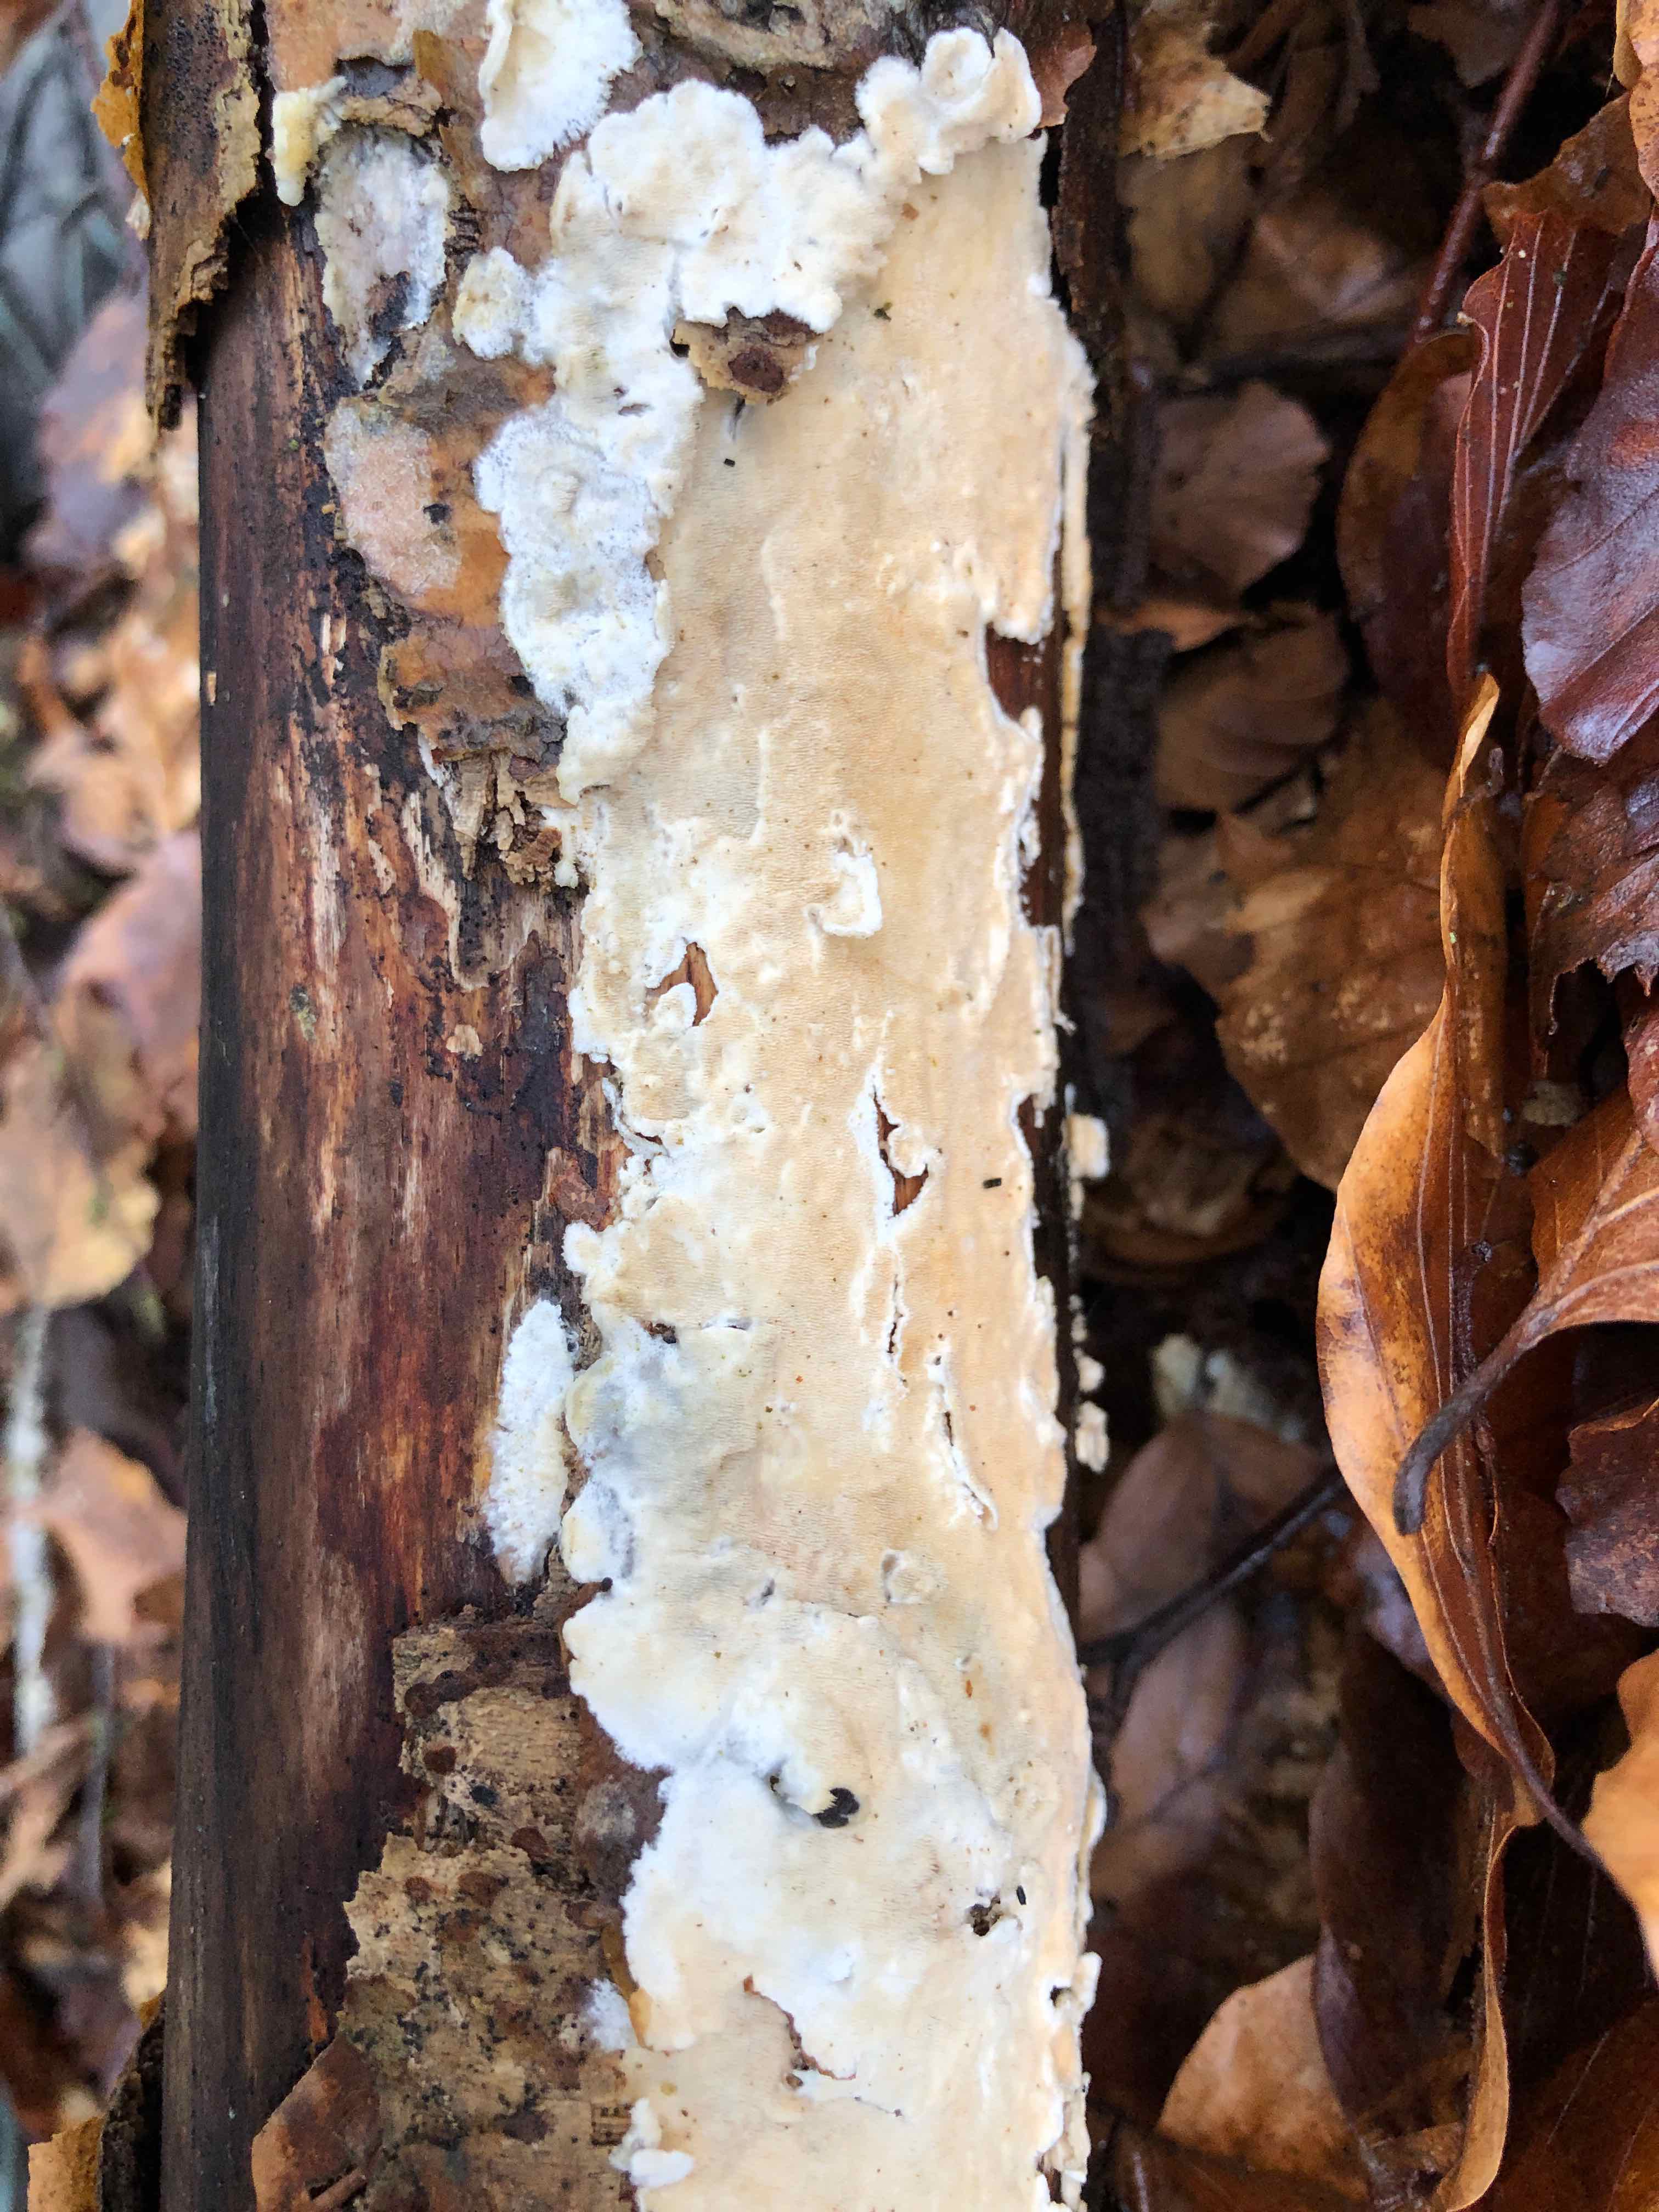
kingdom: Fungi
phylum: Basidiomycota
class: Agaricomycetes
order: Polyporales
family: Irpicaceae
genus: Byssomerulius
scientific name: Byssomerulius corium
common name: læder-åresvamp
